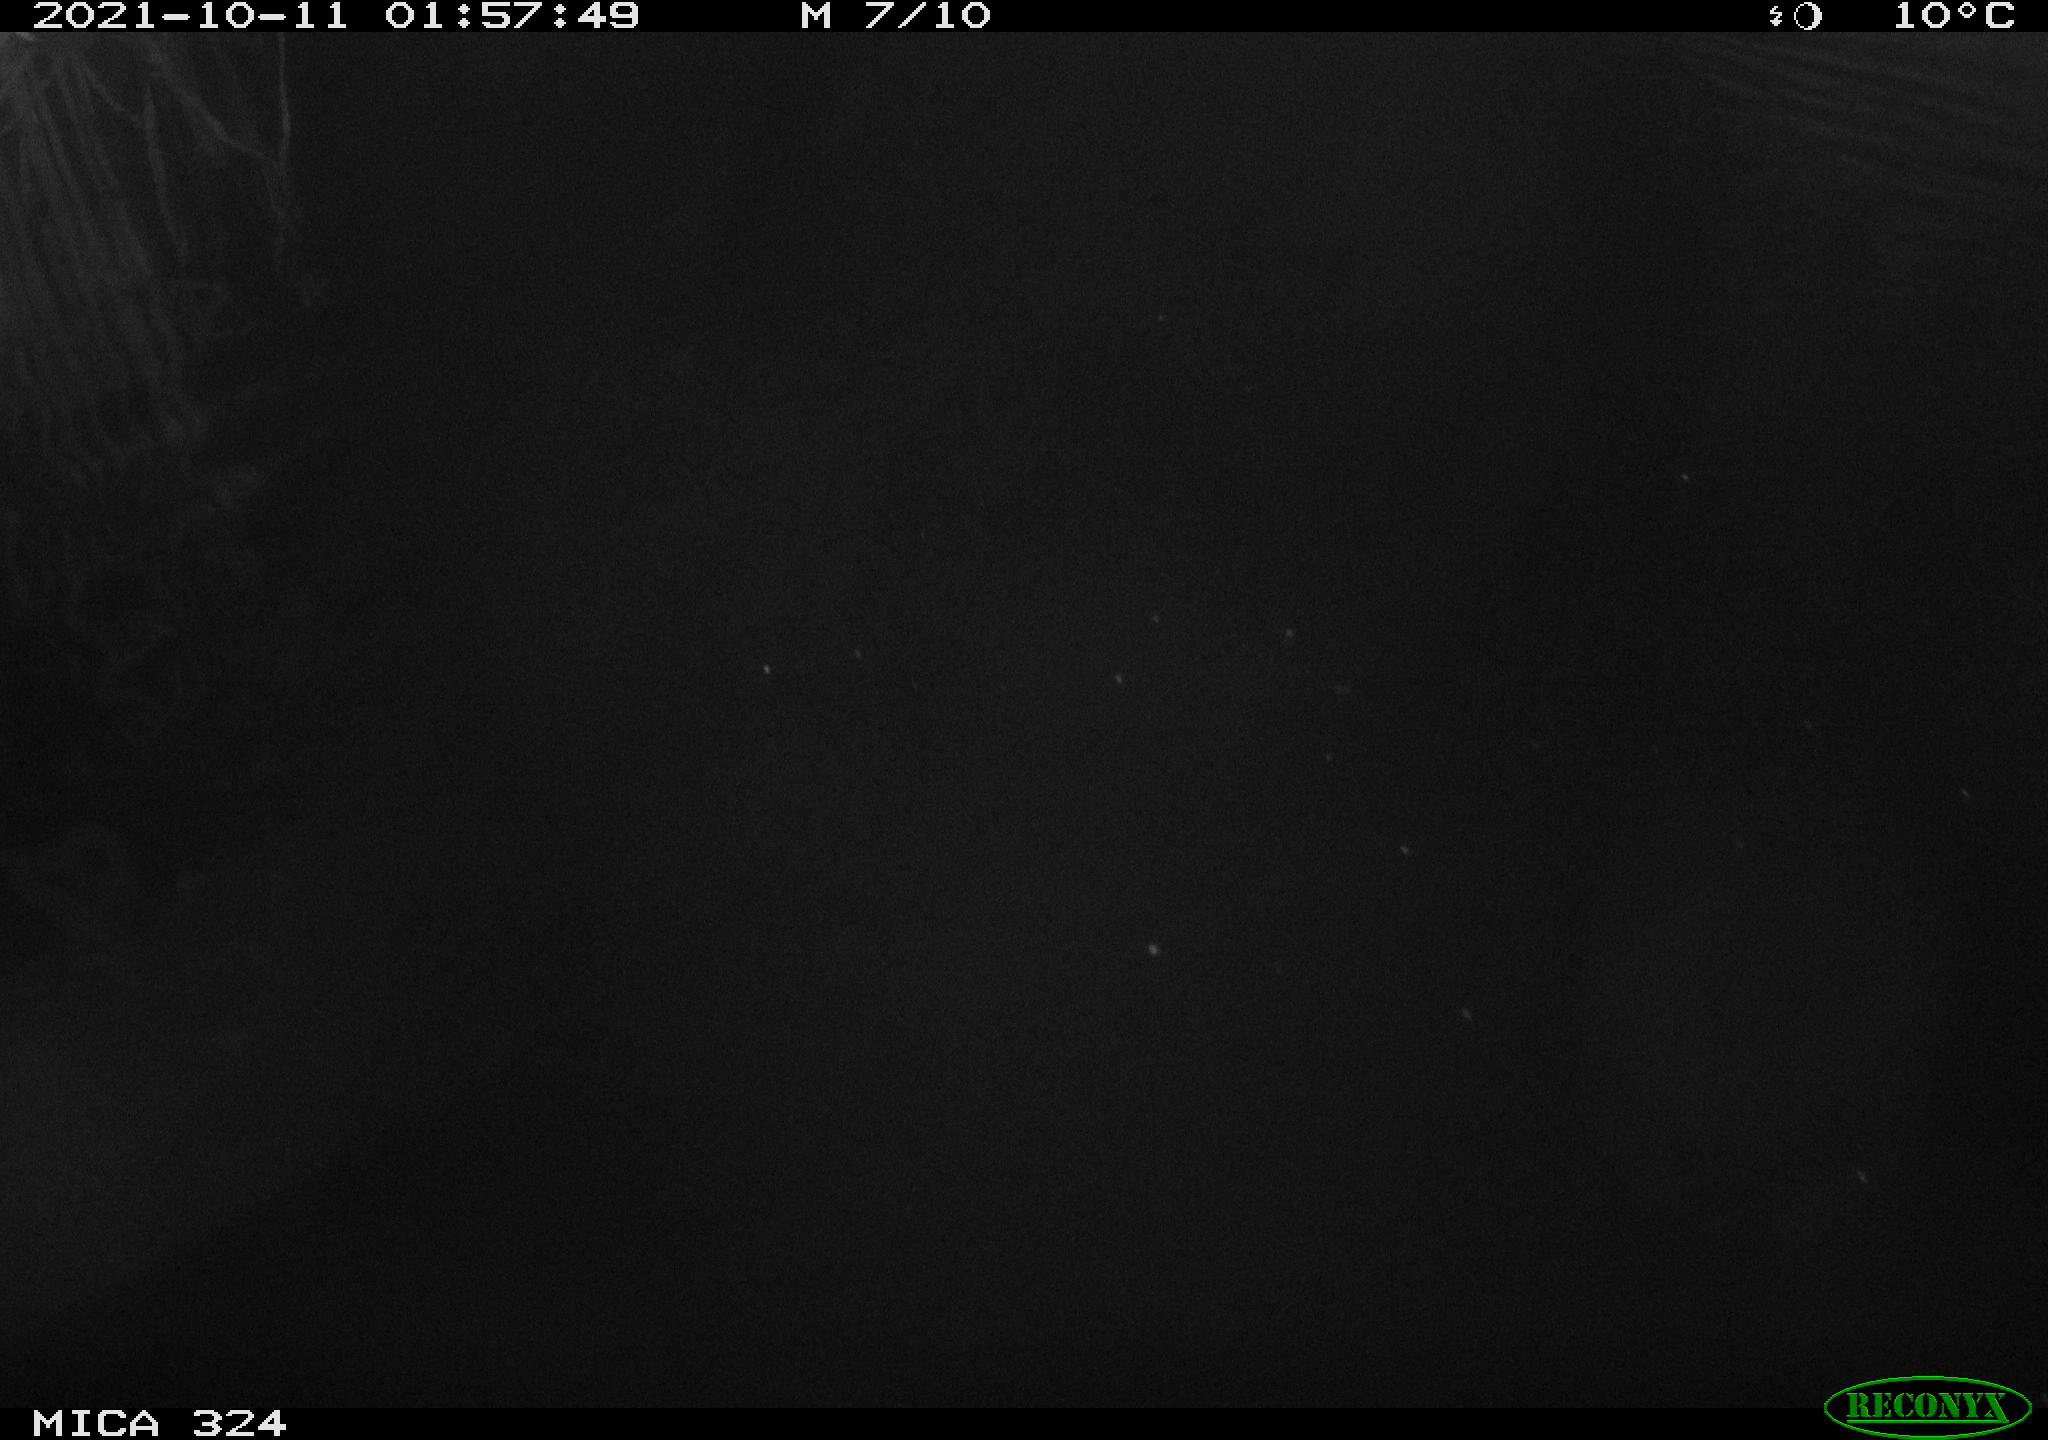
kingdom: Animalia
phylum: Chordata
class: Mammalia
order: Rodentia
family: Cricetidae
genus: Ondatra
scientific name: Ondatra zibethicus
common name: Muskrat
